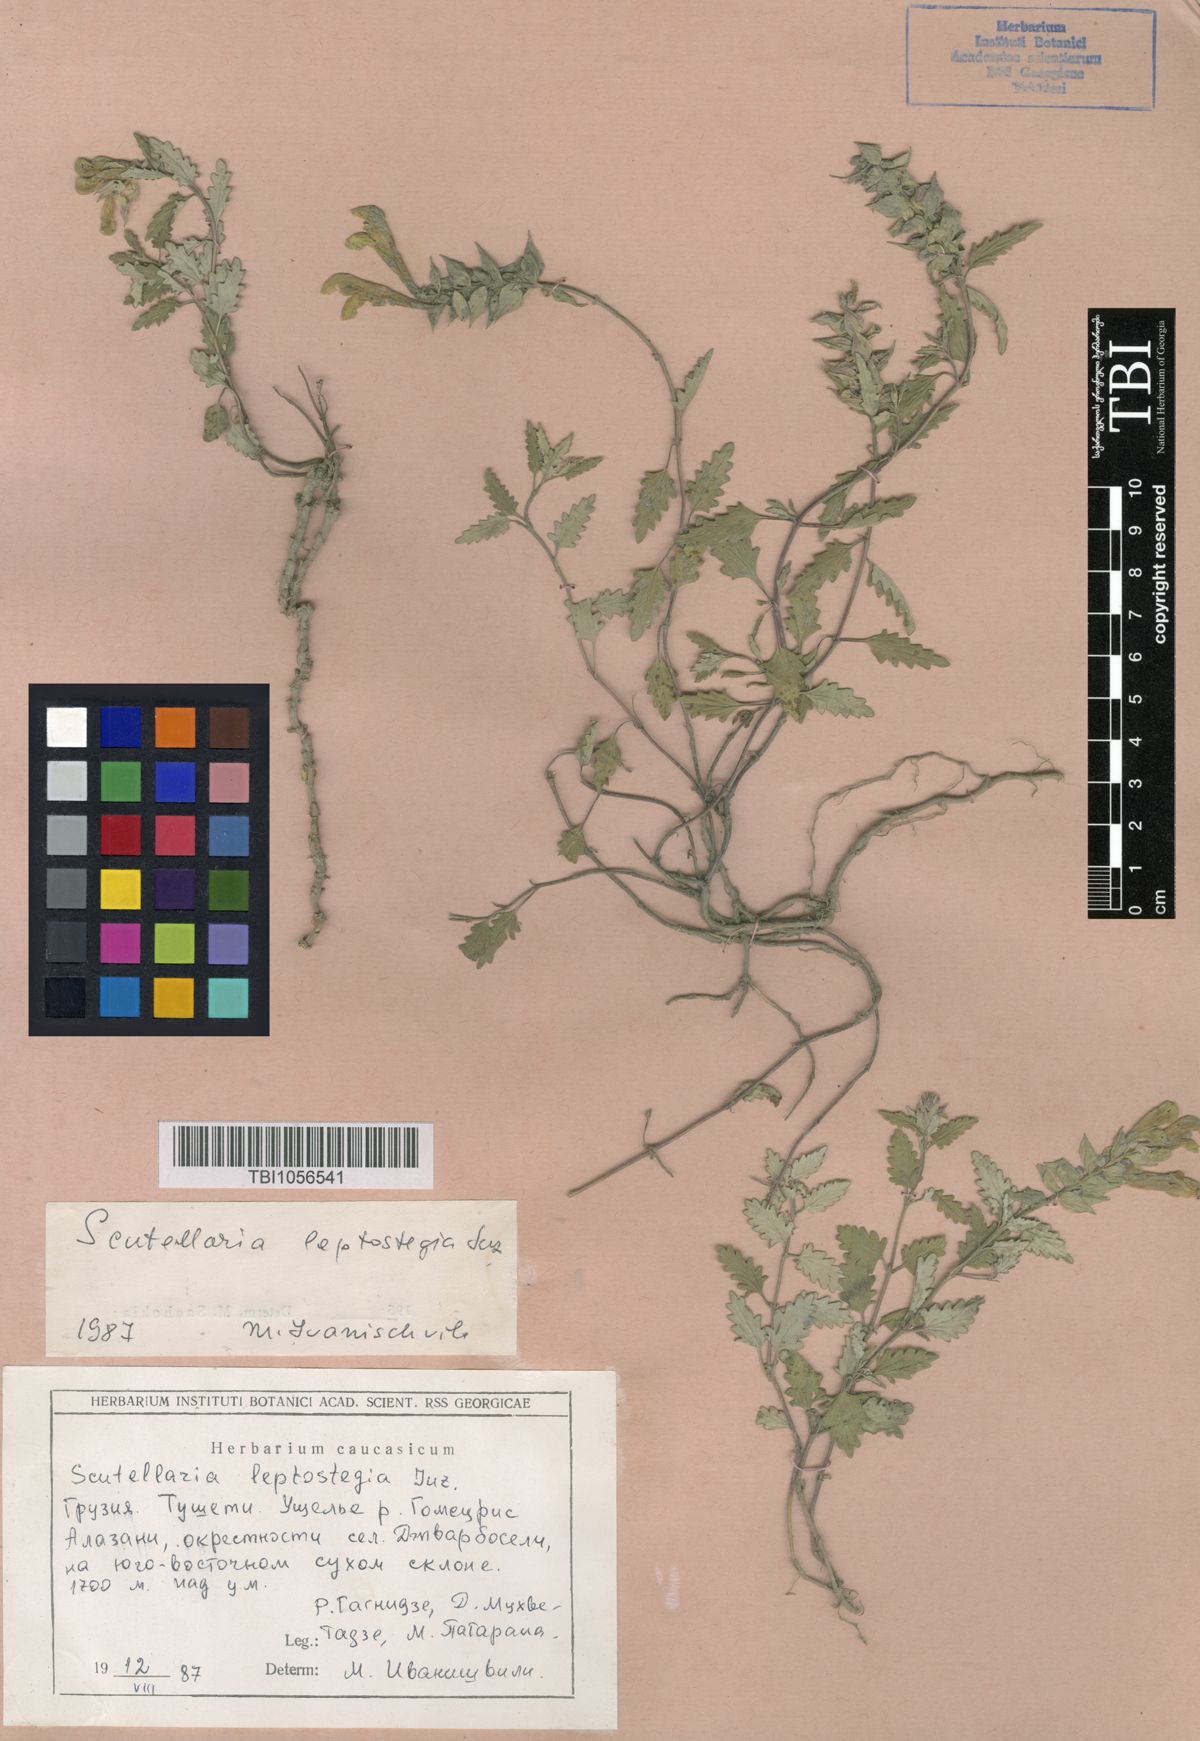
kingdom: Plantae
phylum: Tracheophyta
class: Magnoliopsida
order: Lamiales
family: Lamiaceae
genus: Scutellaria
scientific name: Scutellaria leptostegia
